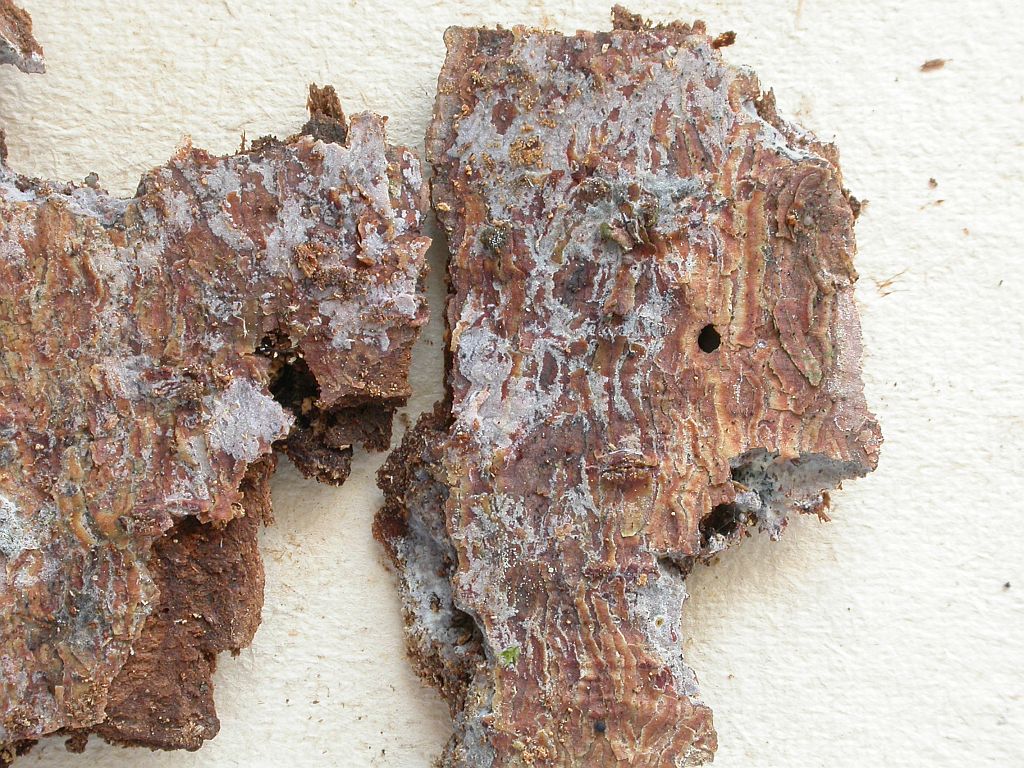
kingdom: Fungi
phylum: Basidiomycota
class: Agaricomycetes
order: Hymenochaetales
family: Rickenellaceae
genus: Peniophorella
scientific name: Peniophorella pubera
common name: dunet kalkskind
